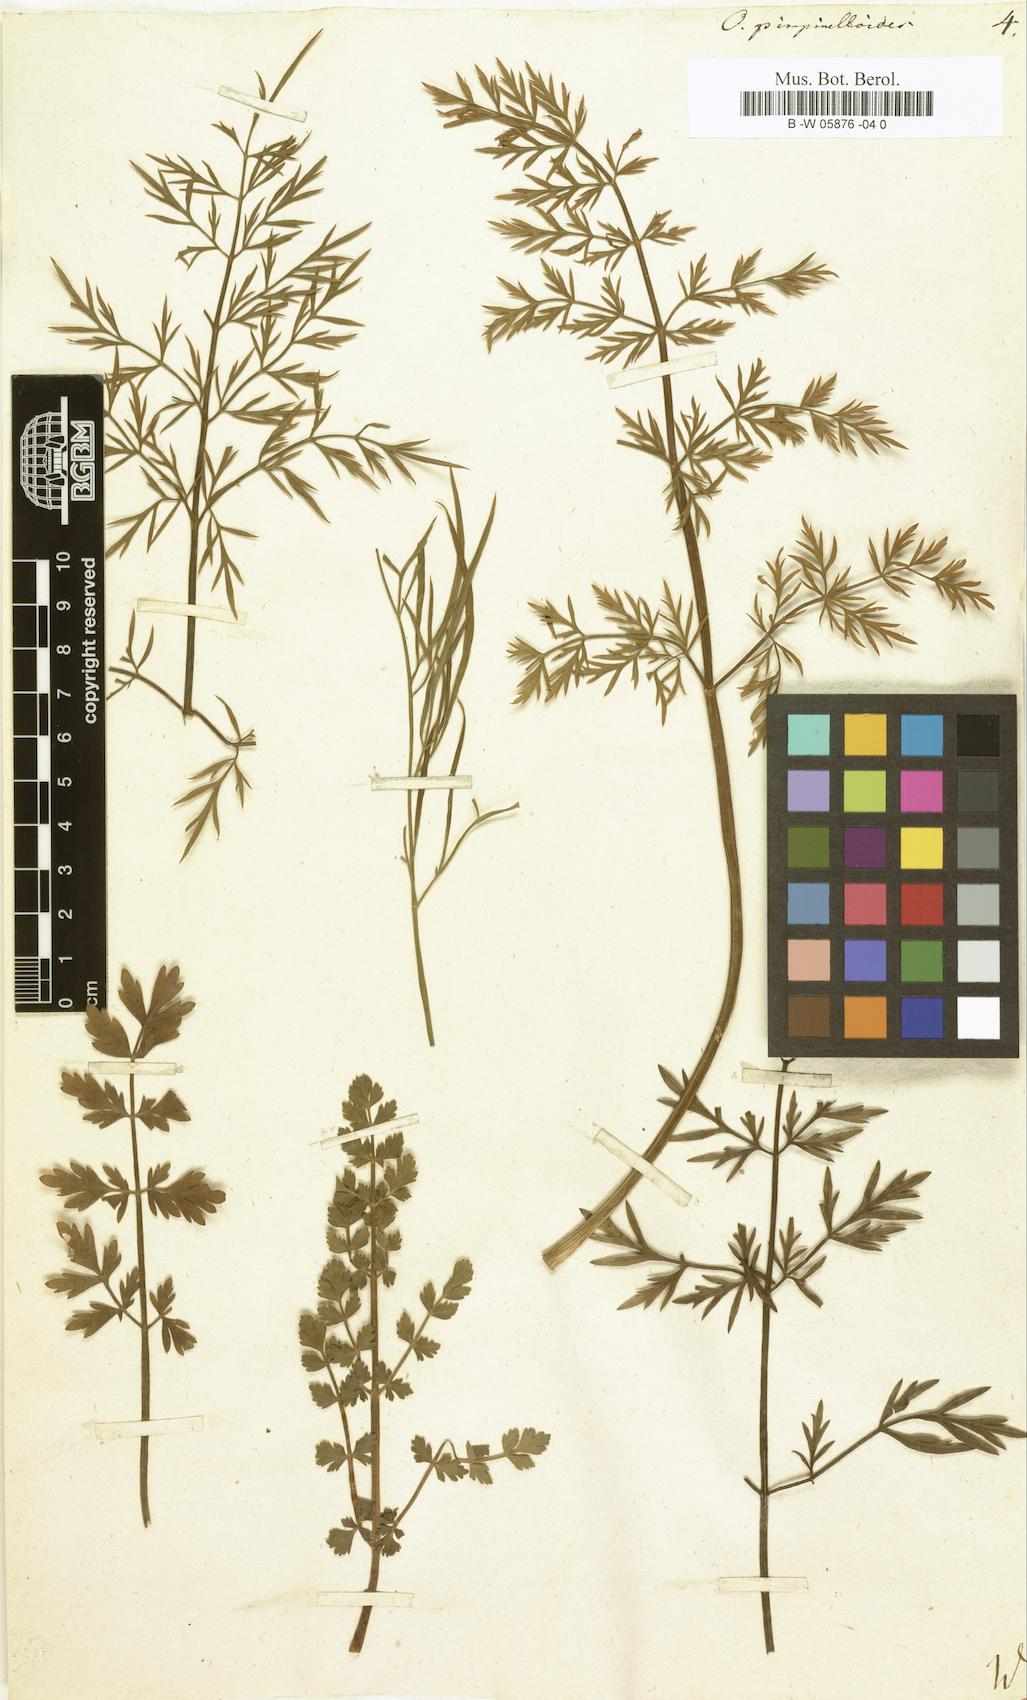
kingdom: Plantae
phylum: Tracheophyta
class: Magnoliopsida
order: Apiales
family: Apiaceae
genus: Oenanthe
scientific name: Oenanthe pimpinelloides
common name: Corky-fruited water-dropwort
